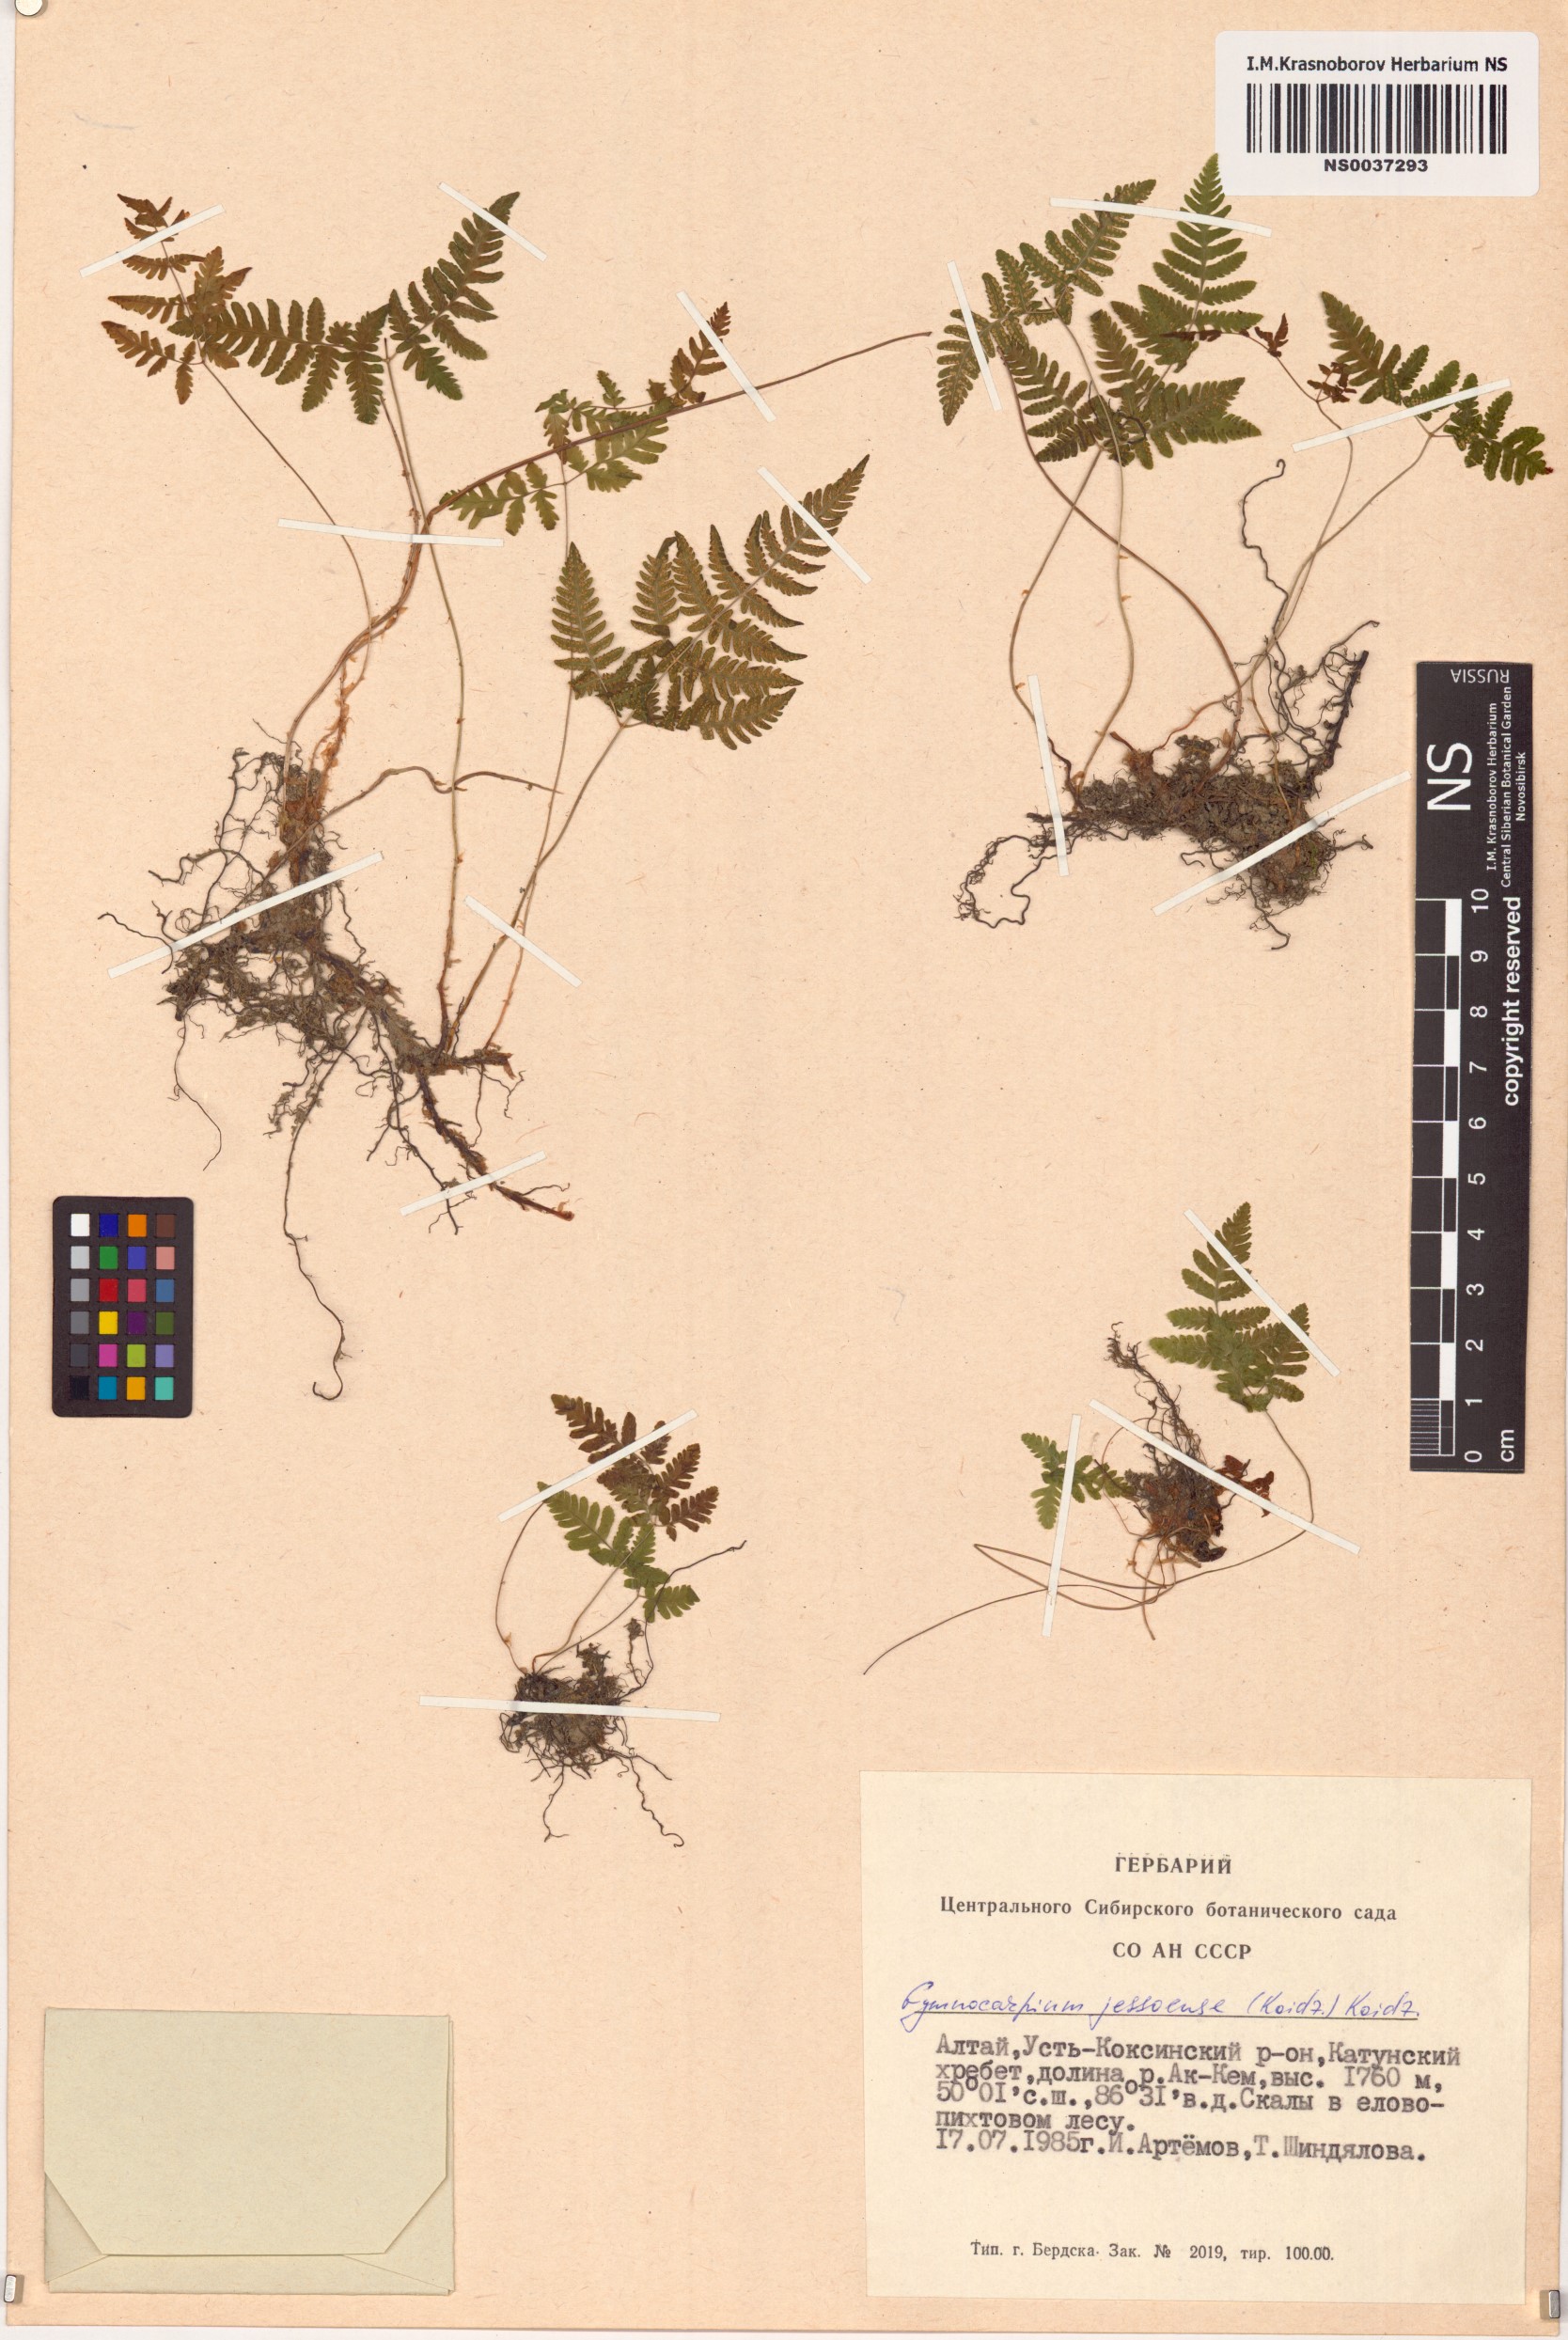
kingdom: Plantae
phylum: Tracheophyta
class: Polypodiopsida
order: Polypodiales
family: Cystopteridaceae
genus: Gymnocarpium
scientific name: Gymnocarpium jessoense
